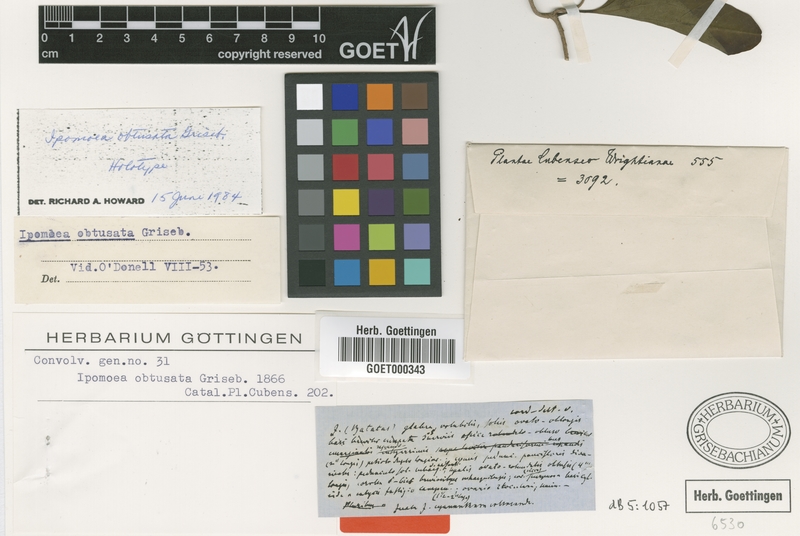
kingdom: Plantae
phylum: Tracheophyta
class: Magnoliopsida
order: Solanales
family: Convolvulaceae
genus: Ipomoea
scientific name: Ipomoea alterniflora
